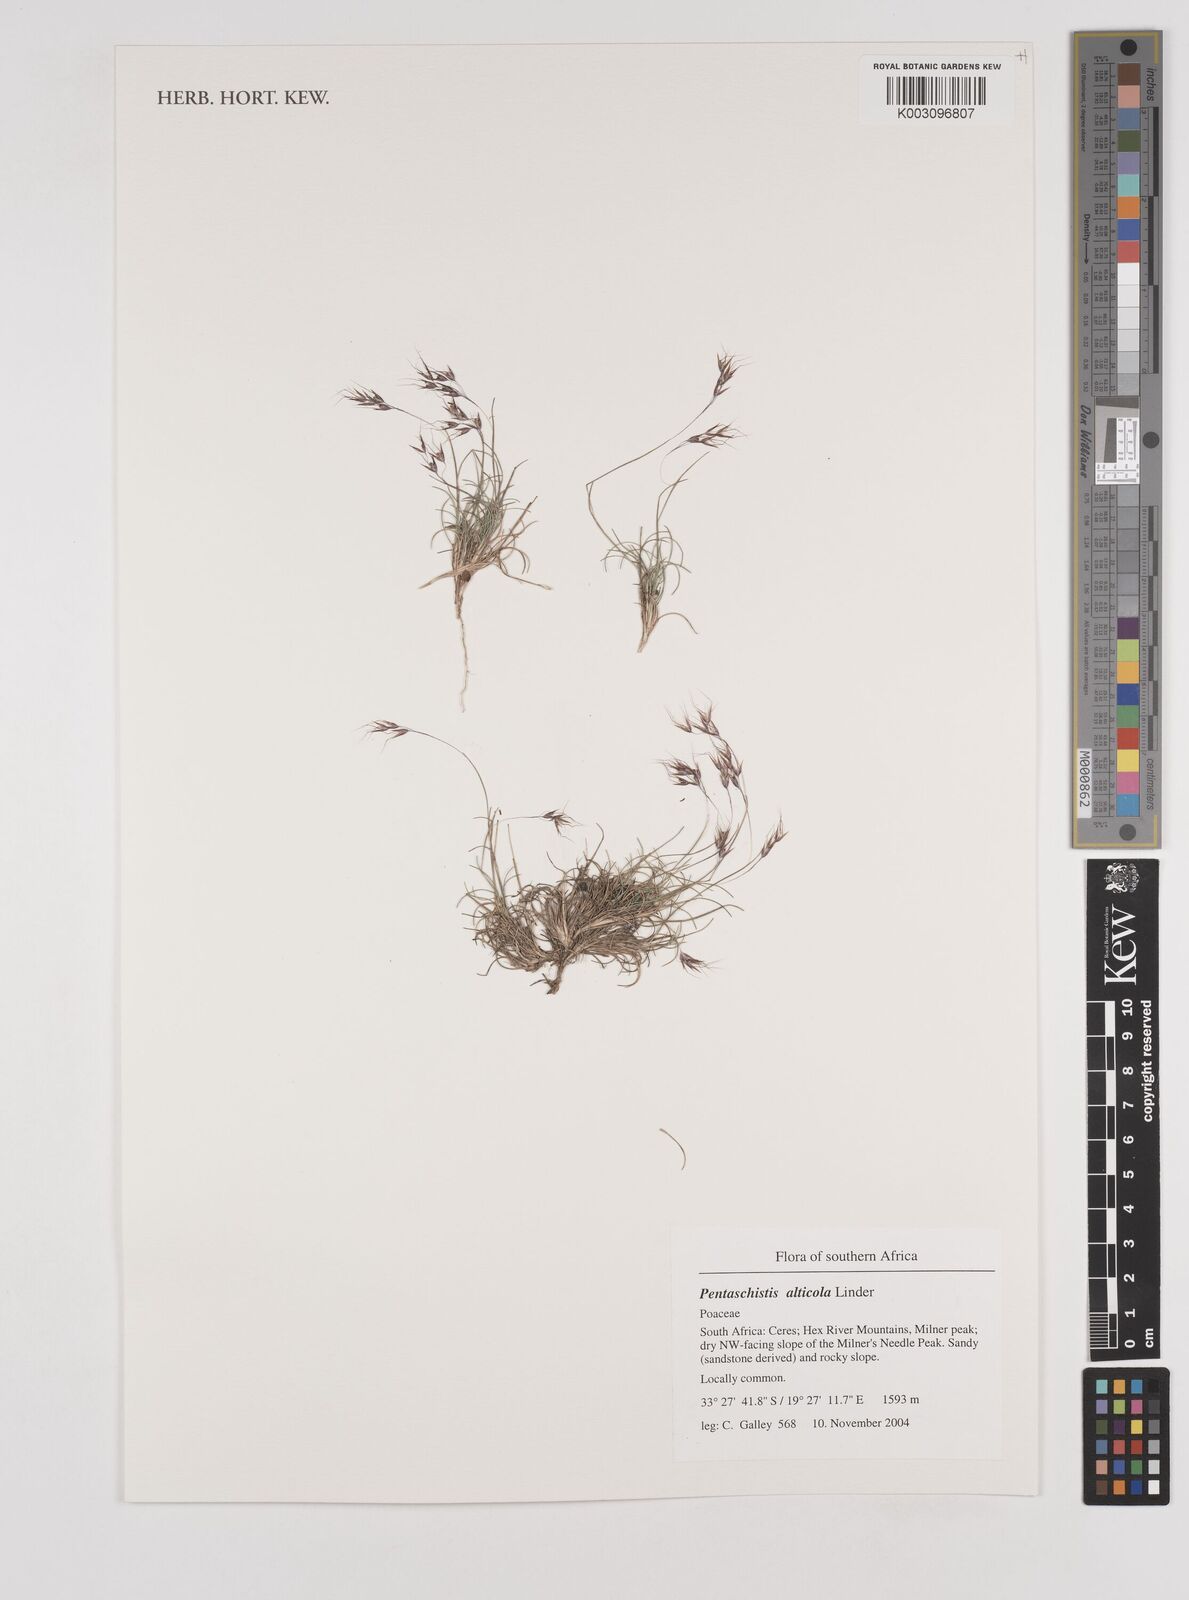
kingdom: Plantae
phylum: Tracheophyta
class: Liliopsida
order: Poales
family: Poaceae
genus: Pentameris
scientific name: Pentameris alticola
